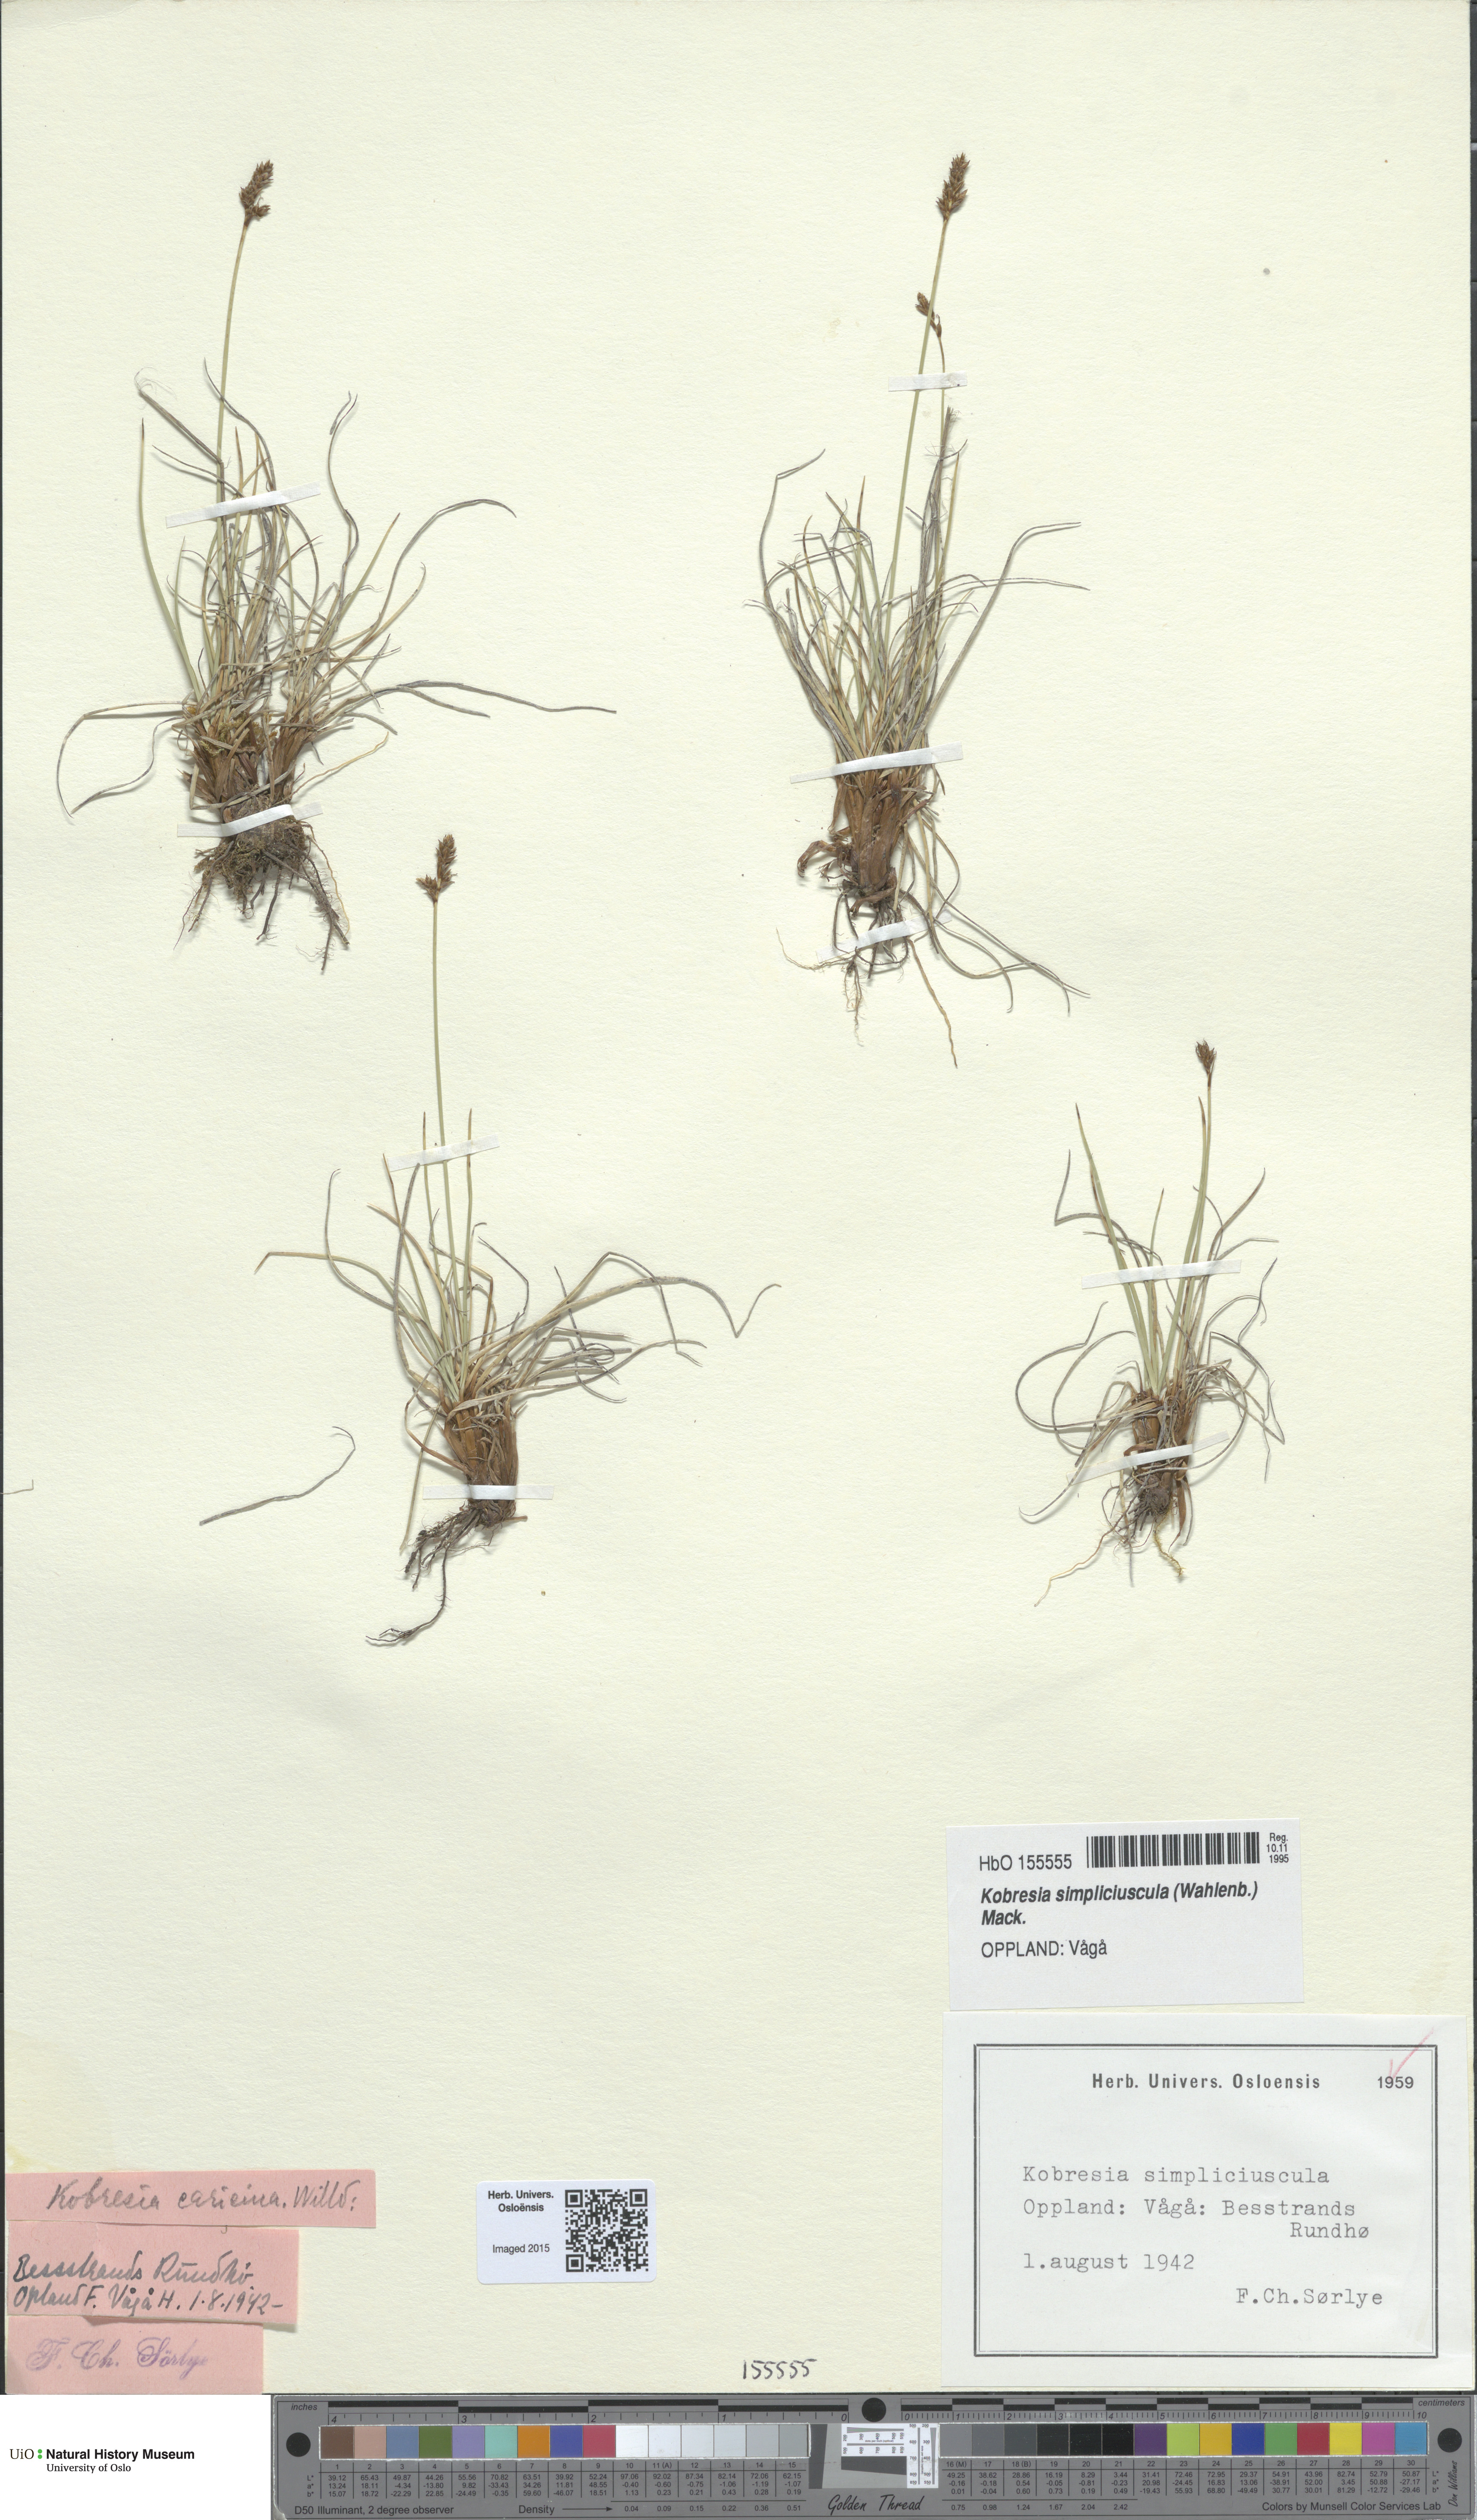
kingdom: Plantae
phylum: Tracheophyta
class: Liliopsida
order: Poales
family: Cyperaceae
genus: Carex
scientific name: Carex simpliciuscula
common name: Simple bog sedge
